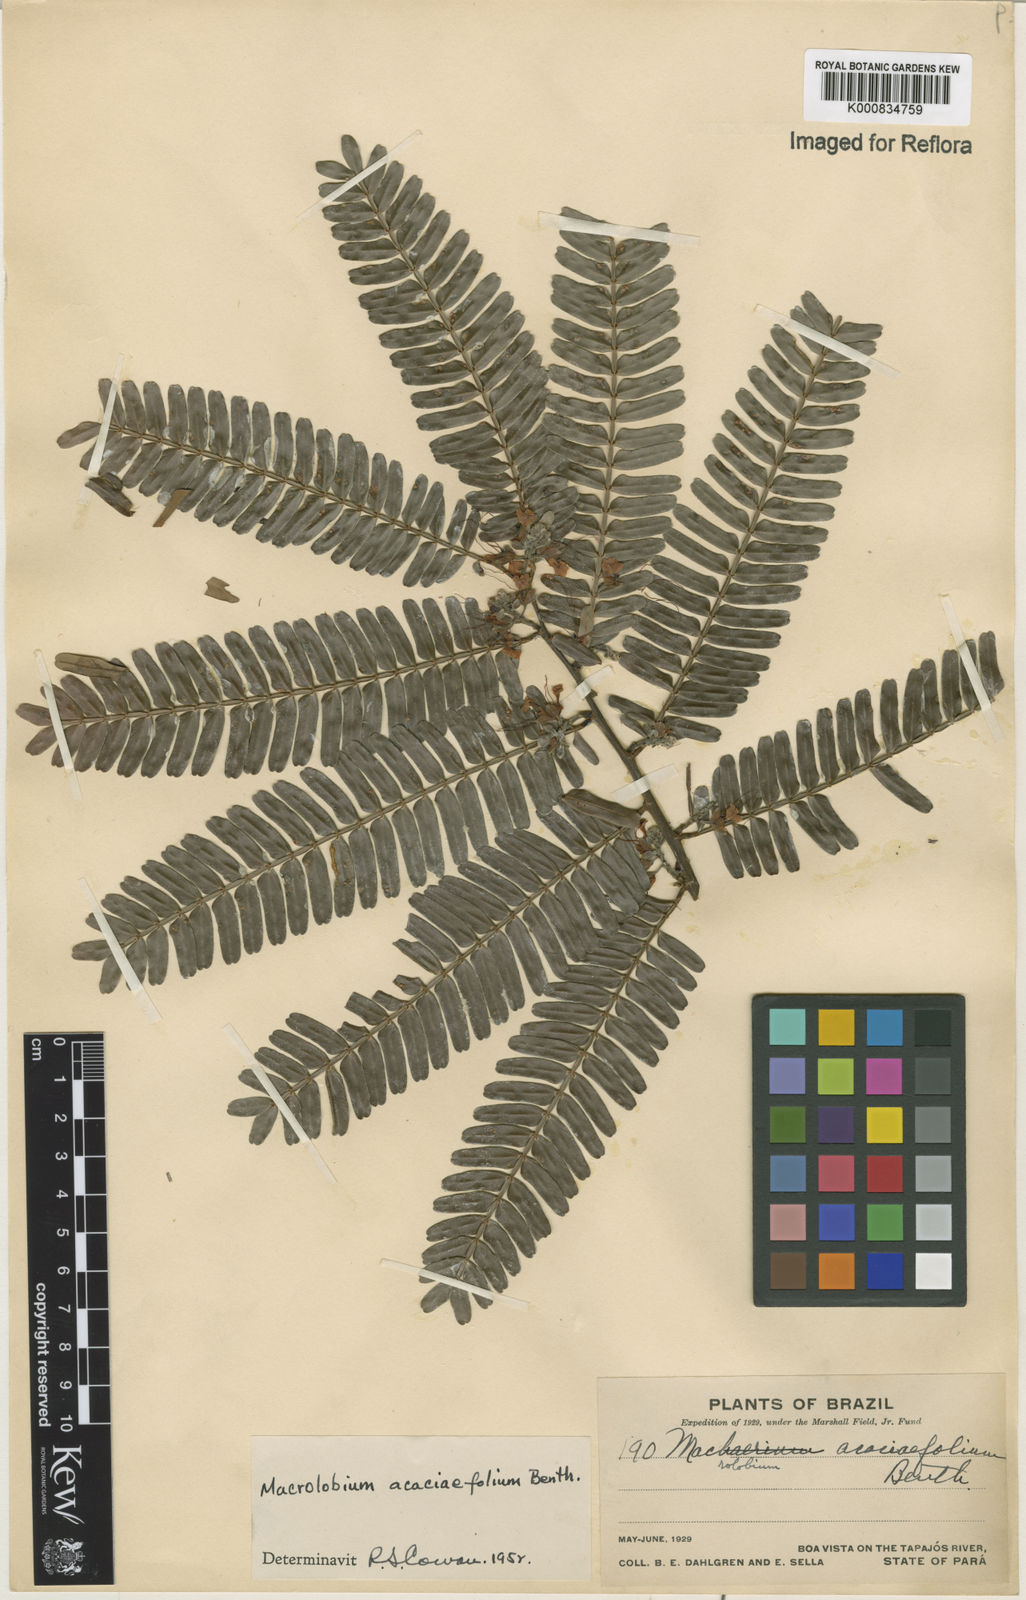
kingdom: Plantae
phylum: Tracheophyta
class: Magnoliopsida
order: Fabales
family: Fabaceae
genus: Macrolobium
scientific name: Macrolobium acaciifolium
